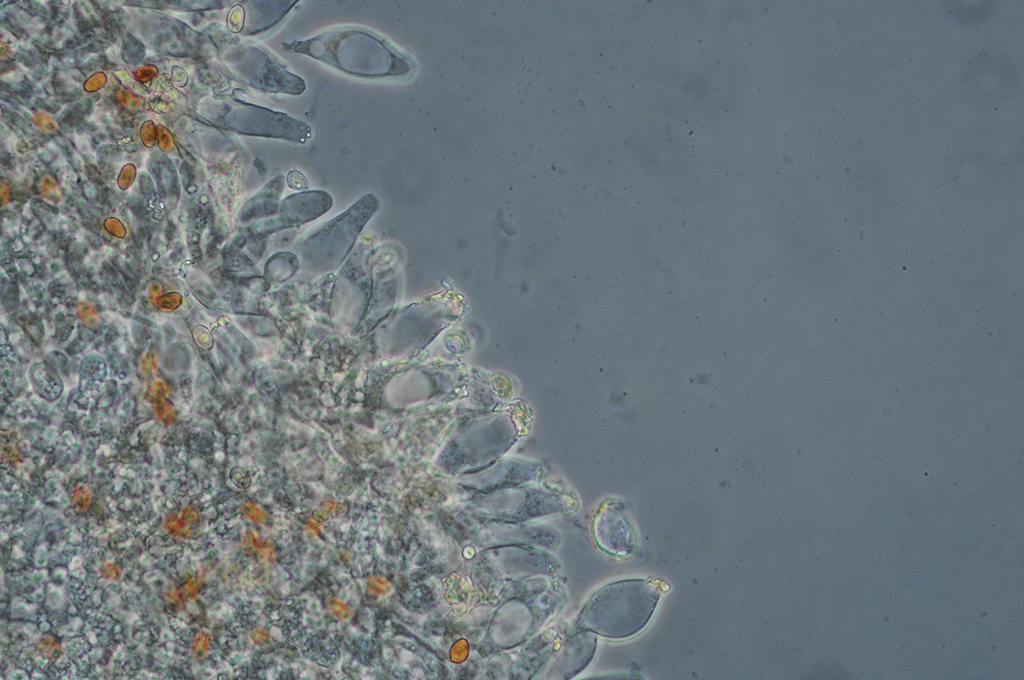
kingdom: Fungi
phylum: Basidiomycota
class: Agaricomycetes
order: Agaricales
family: Psathyrellaceae
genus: Homophron
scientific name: Homophron cernuum
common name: hvidlig mørkhat
